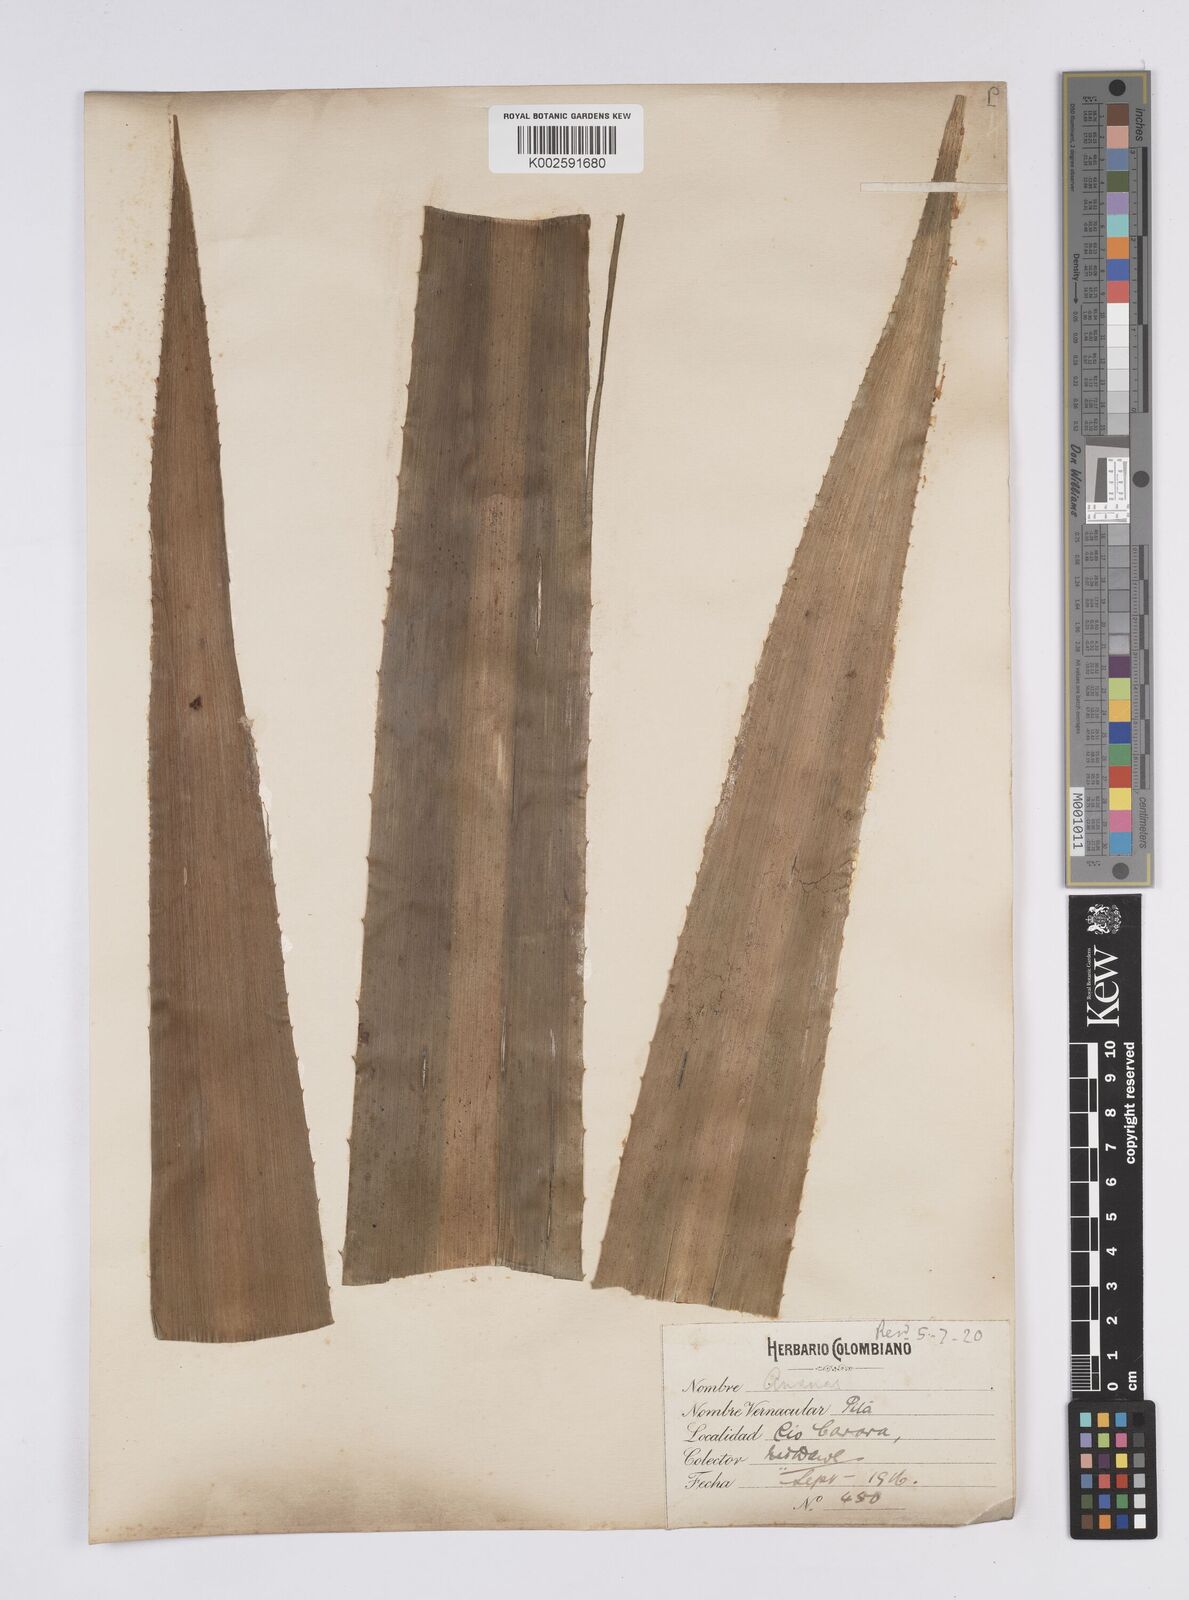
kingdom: Plantae
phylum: Tracheophyta
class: Liliopsida
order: Poales
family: Bromeliaceae
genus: Aechmea
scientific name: Aechmea magdalenae
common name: Arghan
